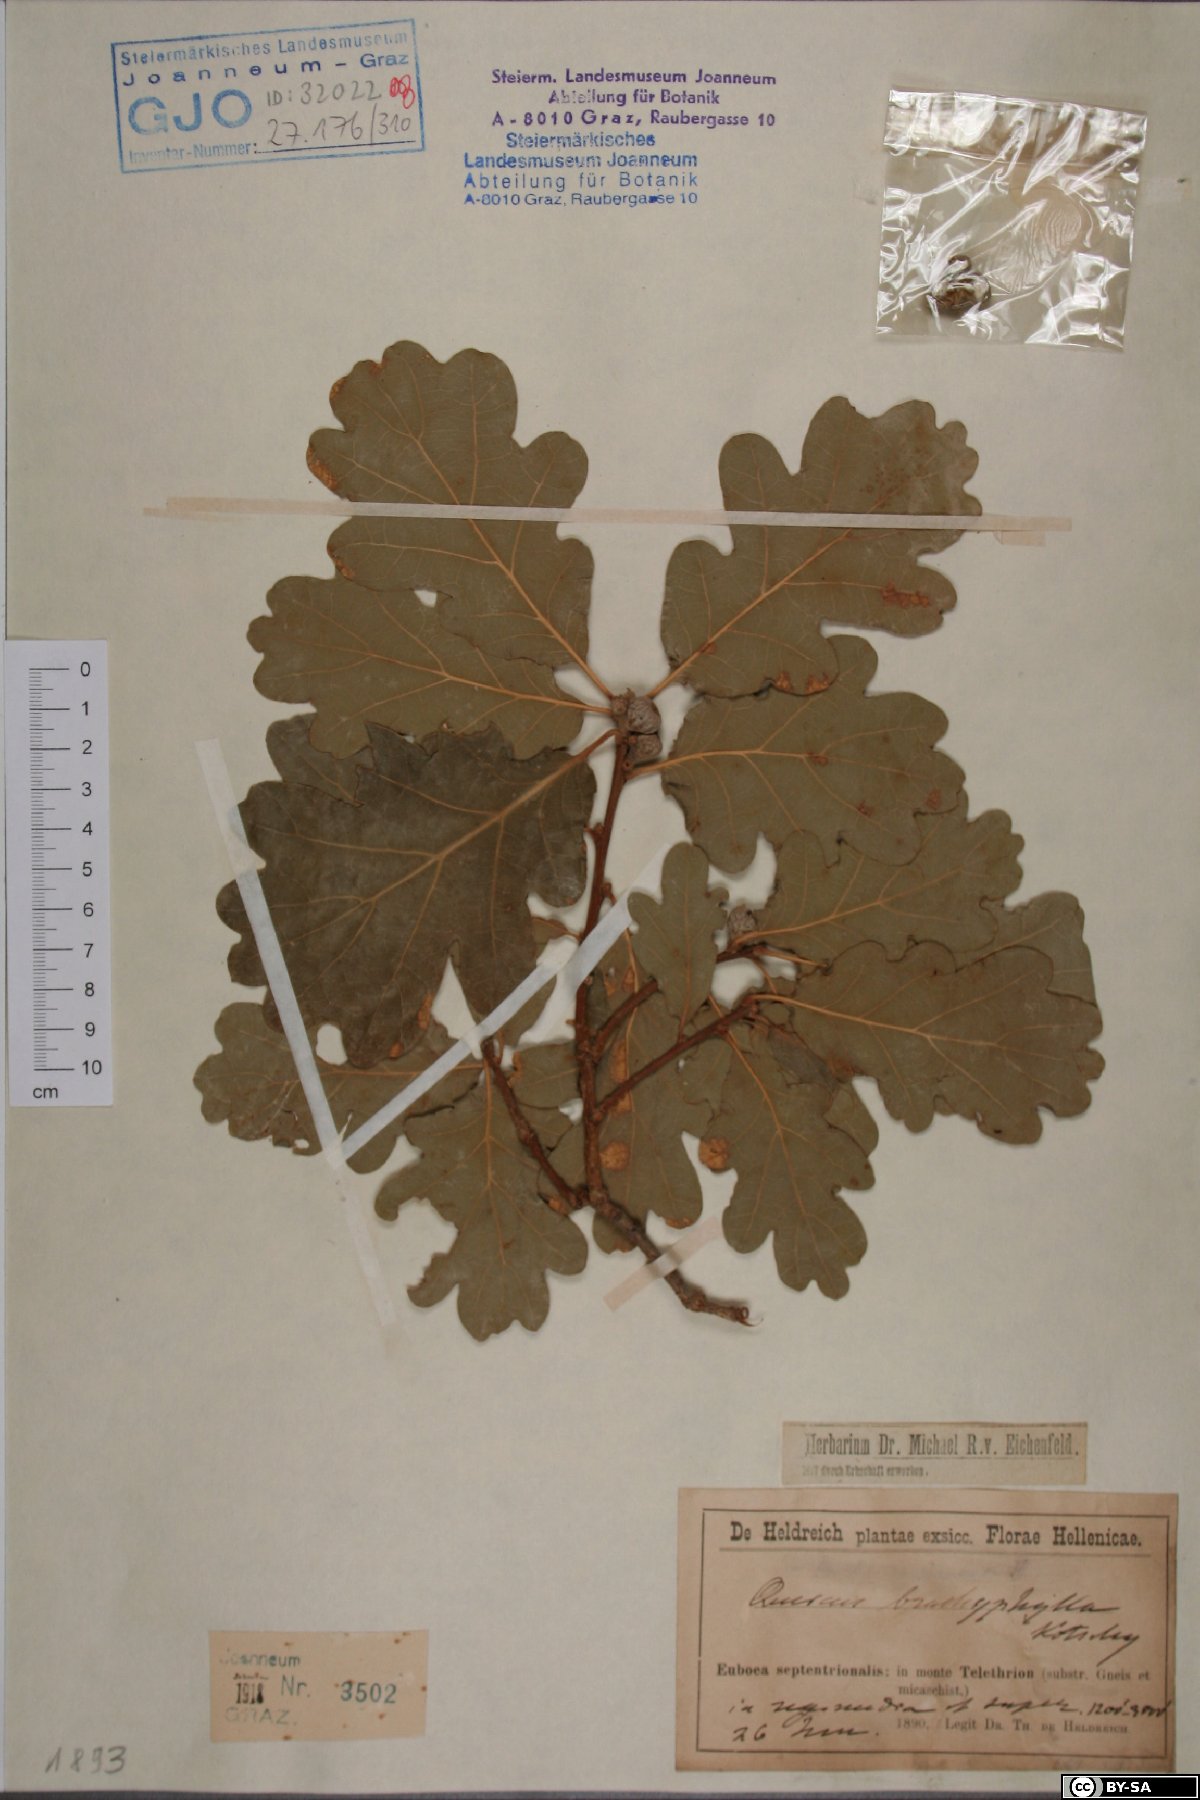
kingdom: Plantae
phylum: Tracheophyta
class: Magnoliopsida
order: Fagales
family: Fagaceae
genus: Quercus
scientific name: Quercus pubescens
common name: Downy oak
